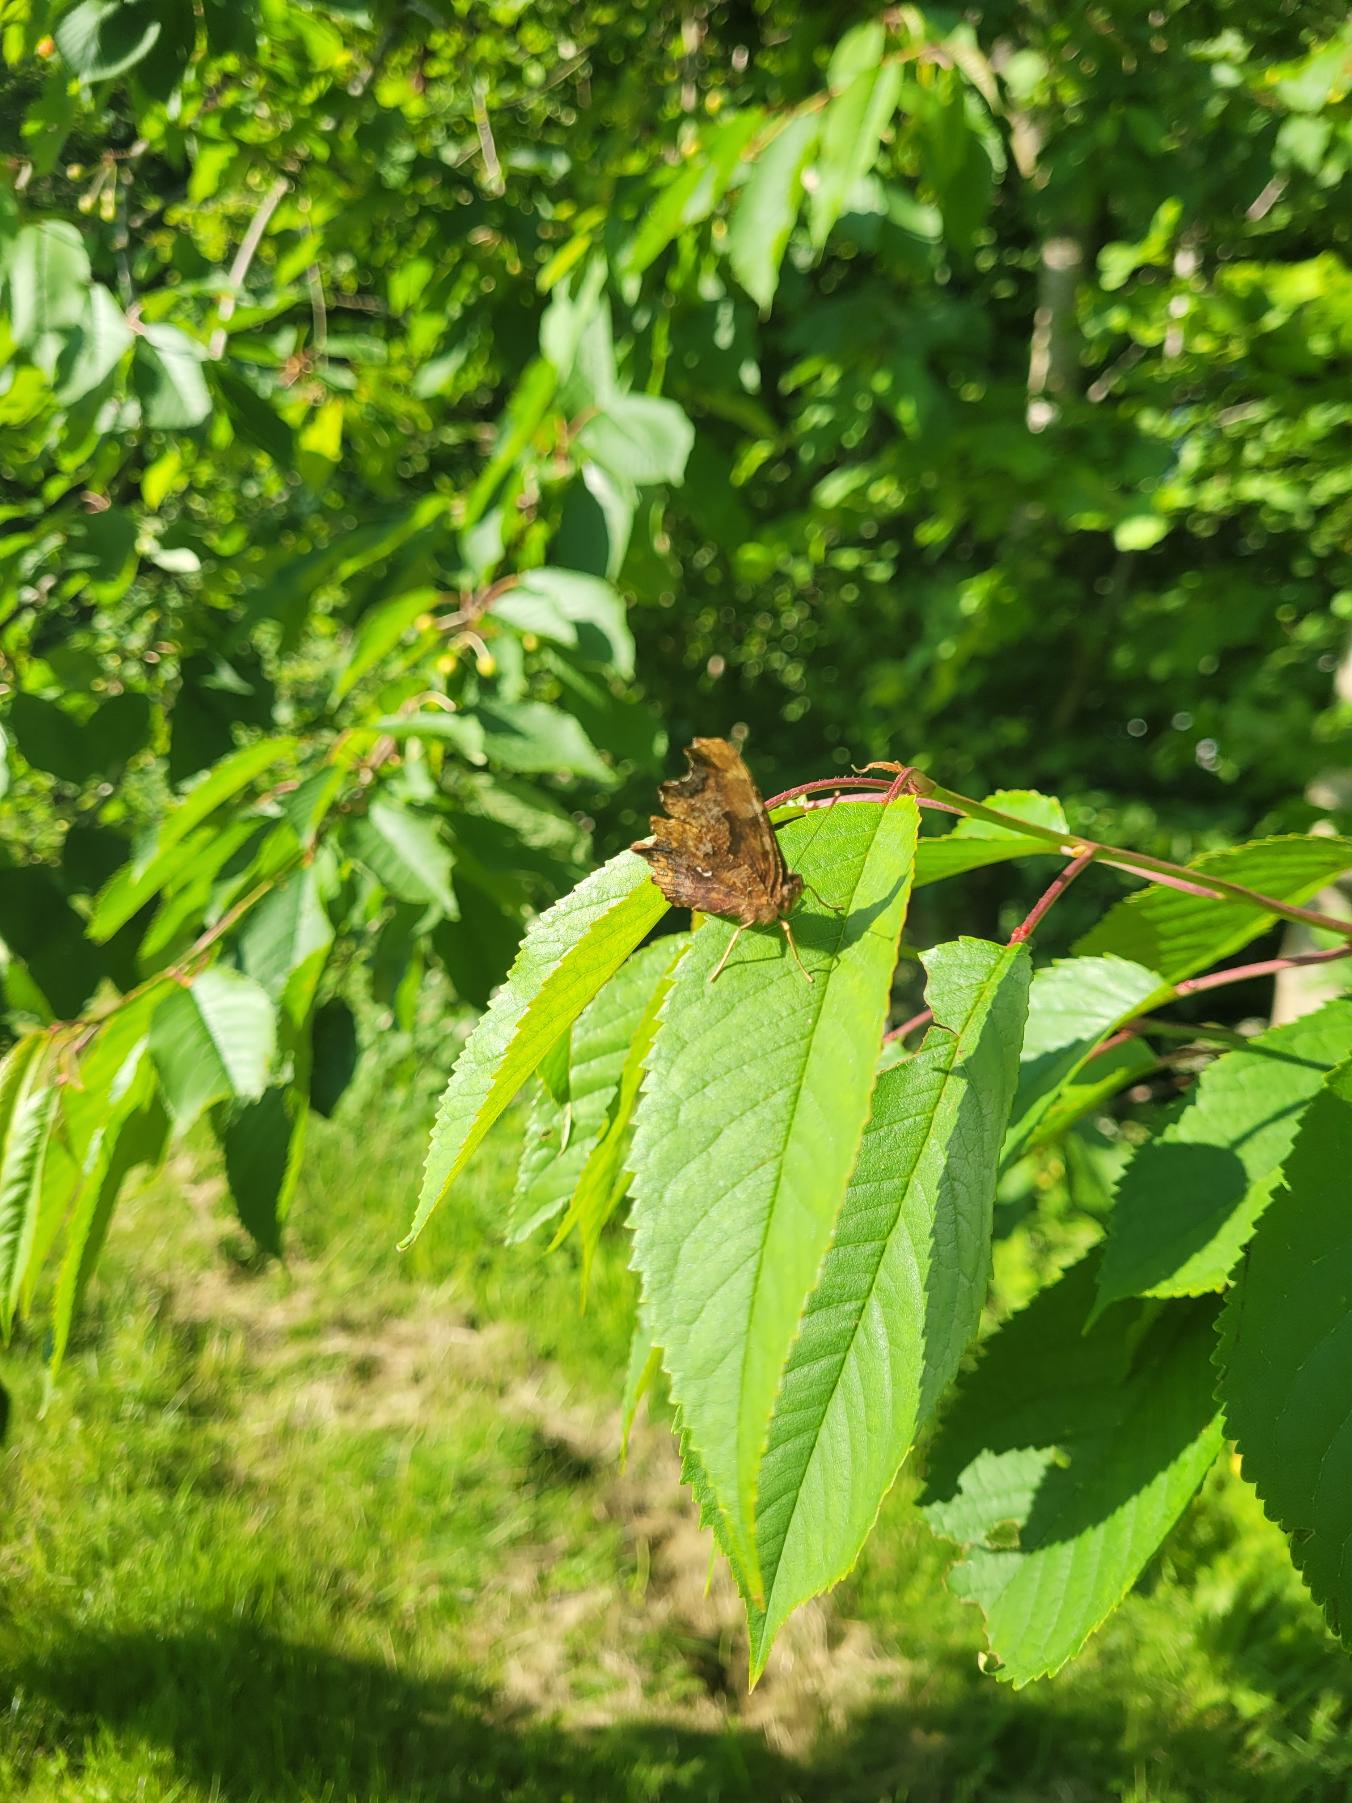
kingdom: Animalia
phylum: Arthropoda
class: Insecta
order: Lepidoptera
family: Nymphalidae
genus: Polygonia
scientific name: Polygonia c-album
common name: Det hvide C
